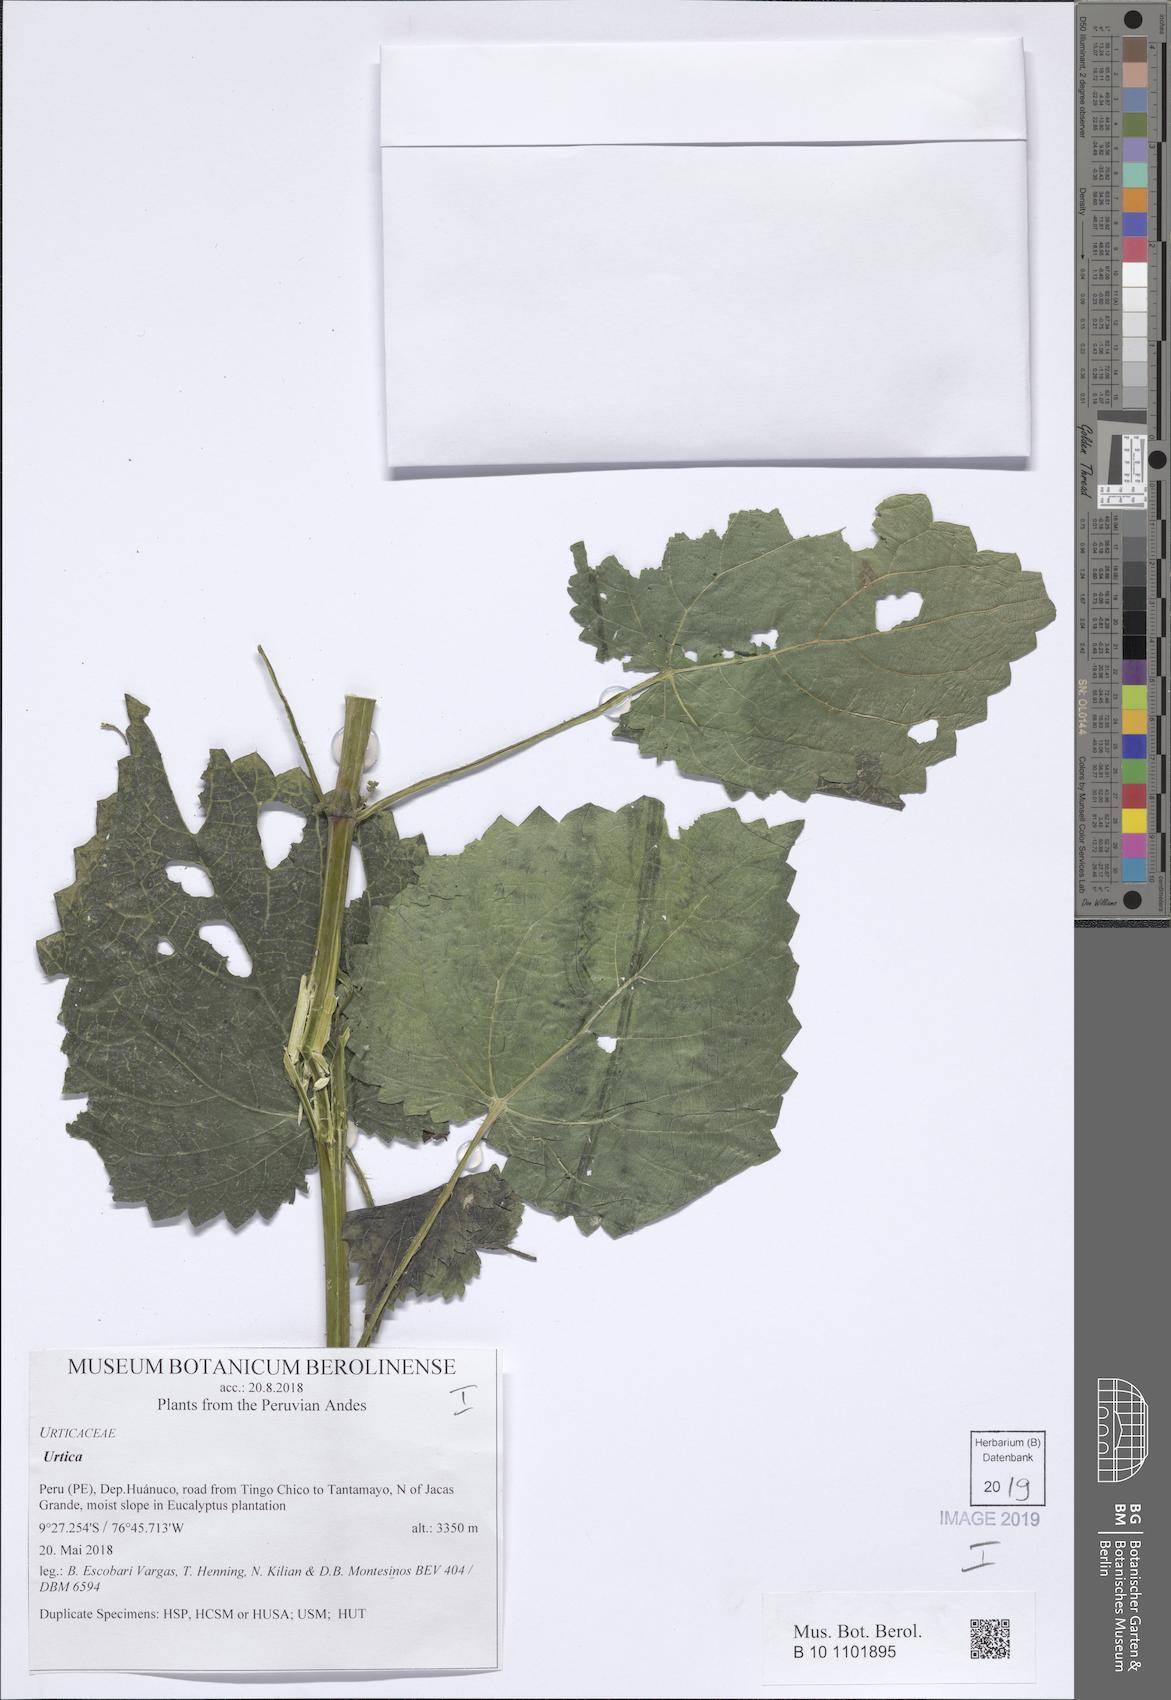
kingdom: Plantae
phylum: Tracheophyta
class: Magnoliopsida
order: Rosales
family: Urticaceae
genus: Urtica
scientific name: Urtica
